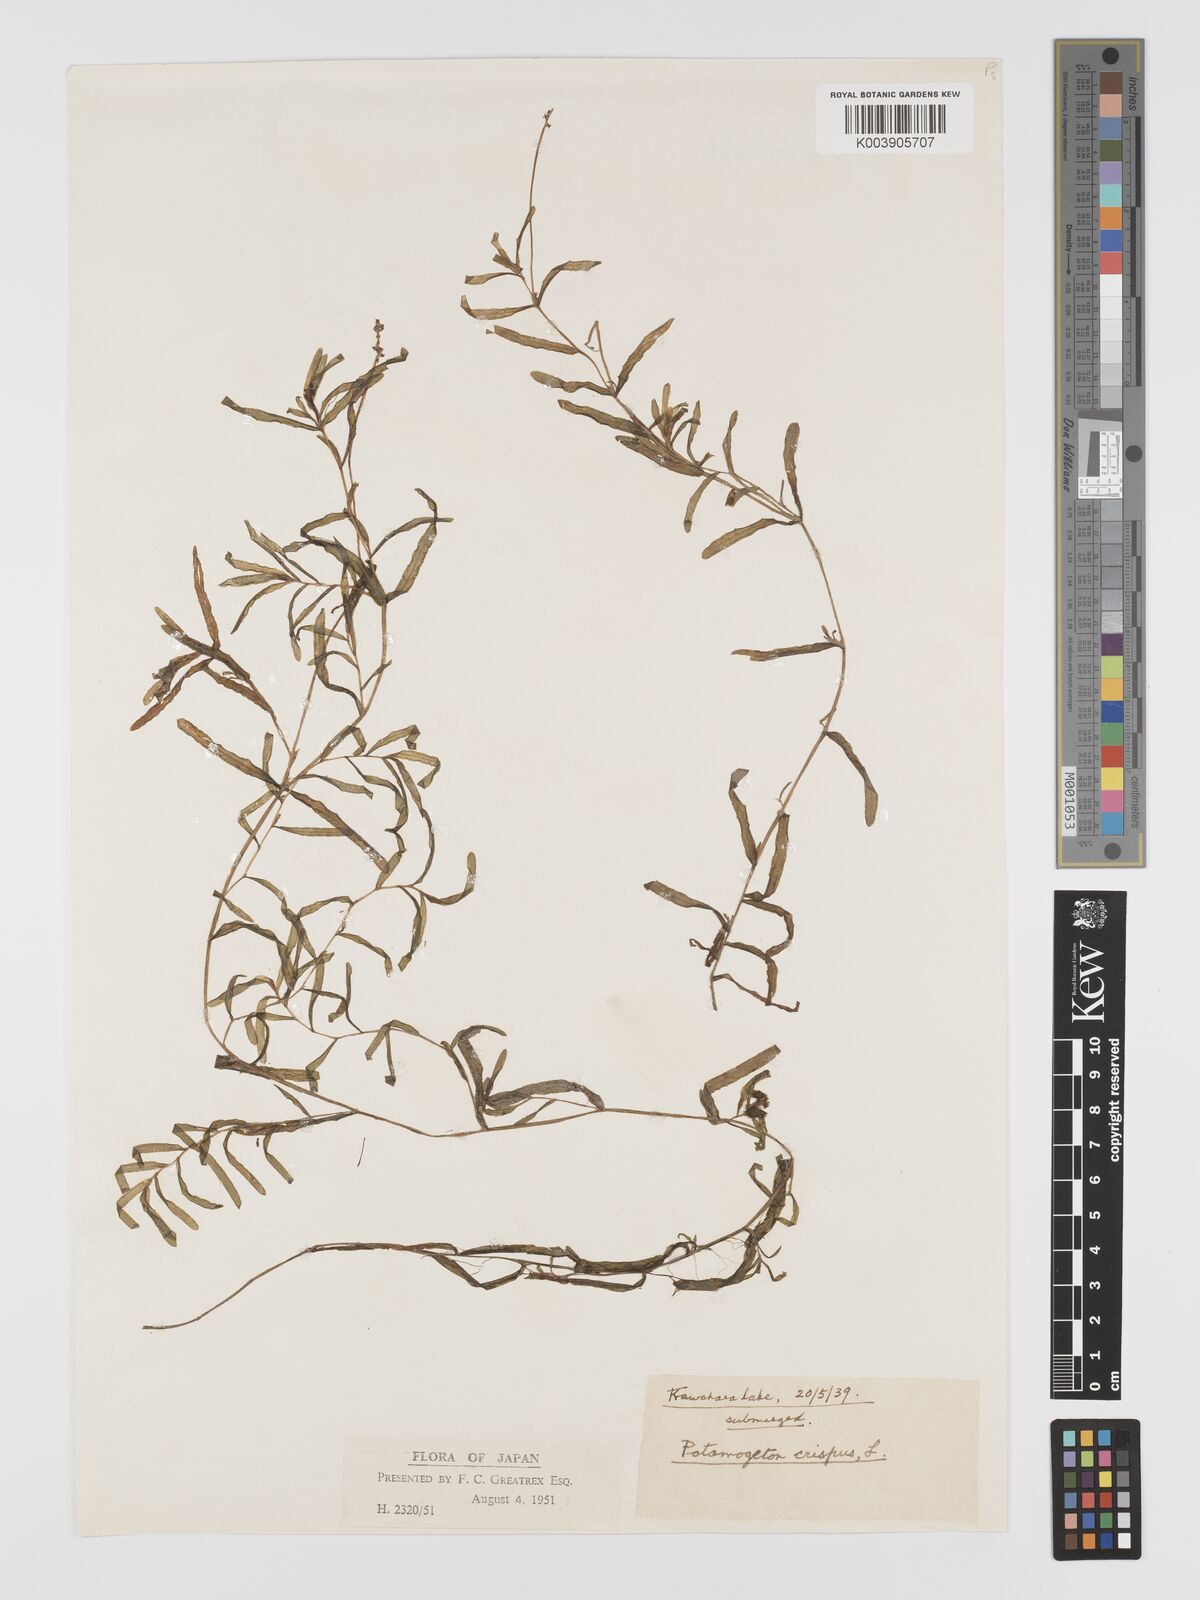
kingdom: Plantae
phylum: Tracheophyta
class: Liliopsida
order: Alismatales
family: Potamogetonaceae
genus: Potamogeton
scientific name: Potamogeton crispus
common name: Curled pondweed
